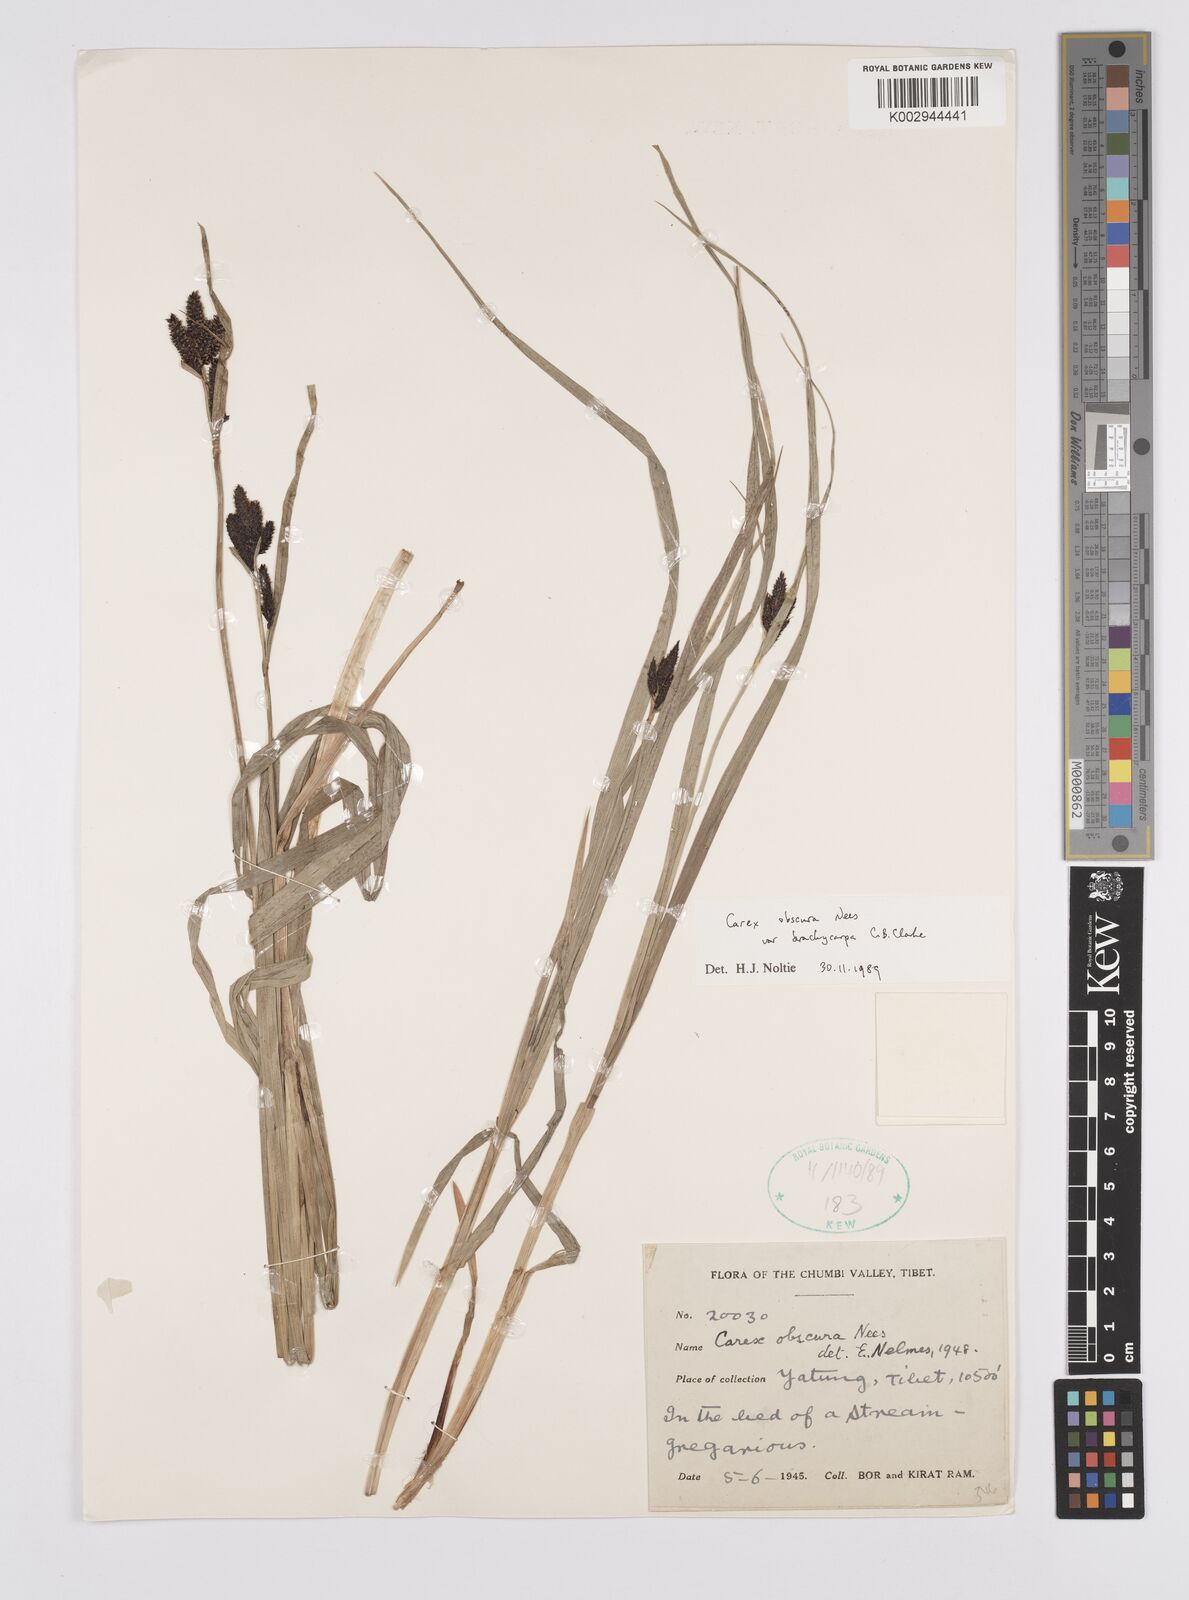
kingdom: Plantae
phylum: Tracheophyta
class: Liliopsida
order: Poales
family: Cyperaceae
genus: Carex
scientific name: Carex obscura
